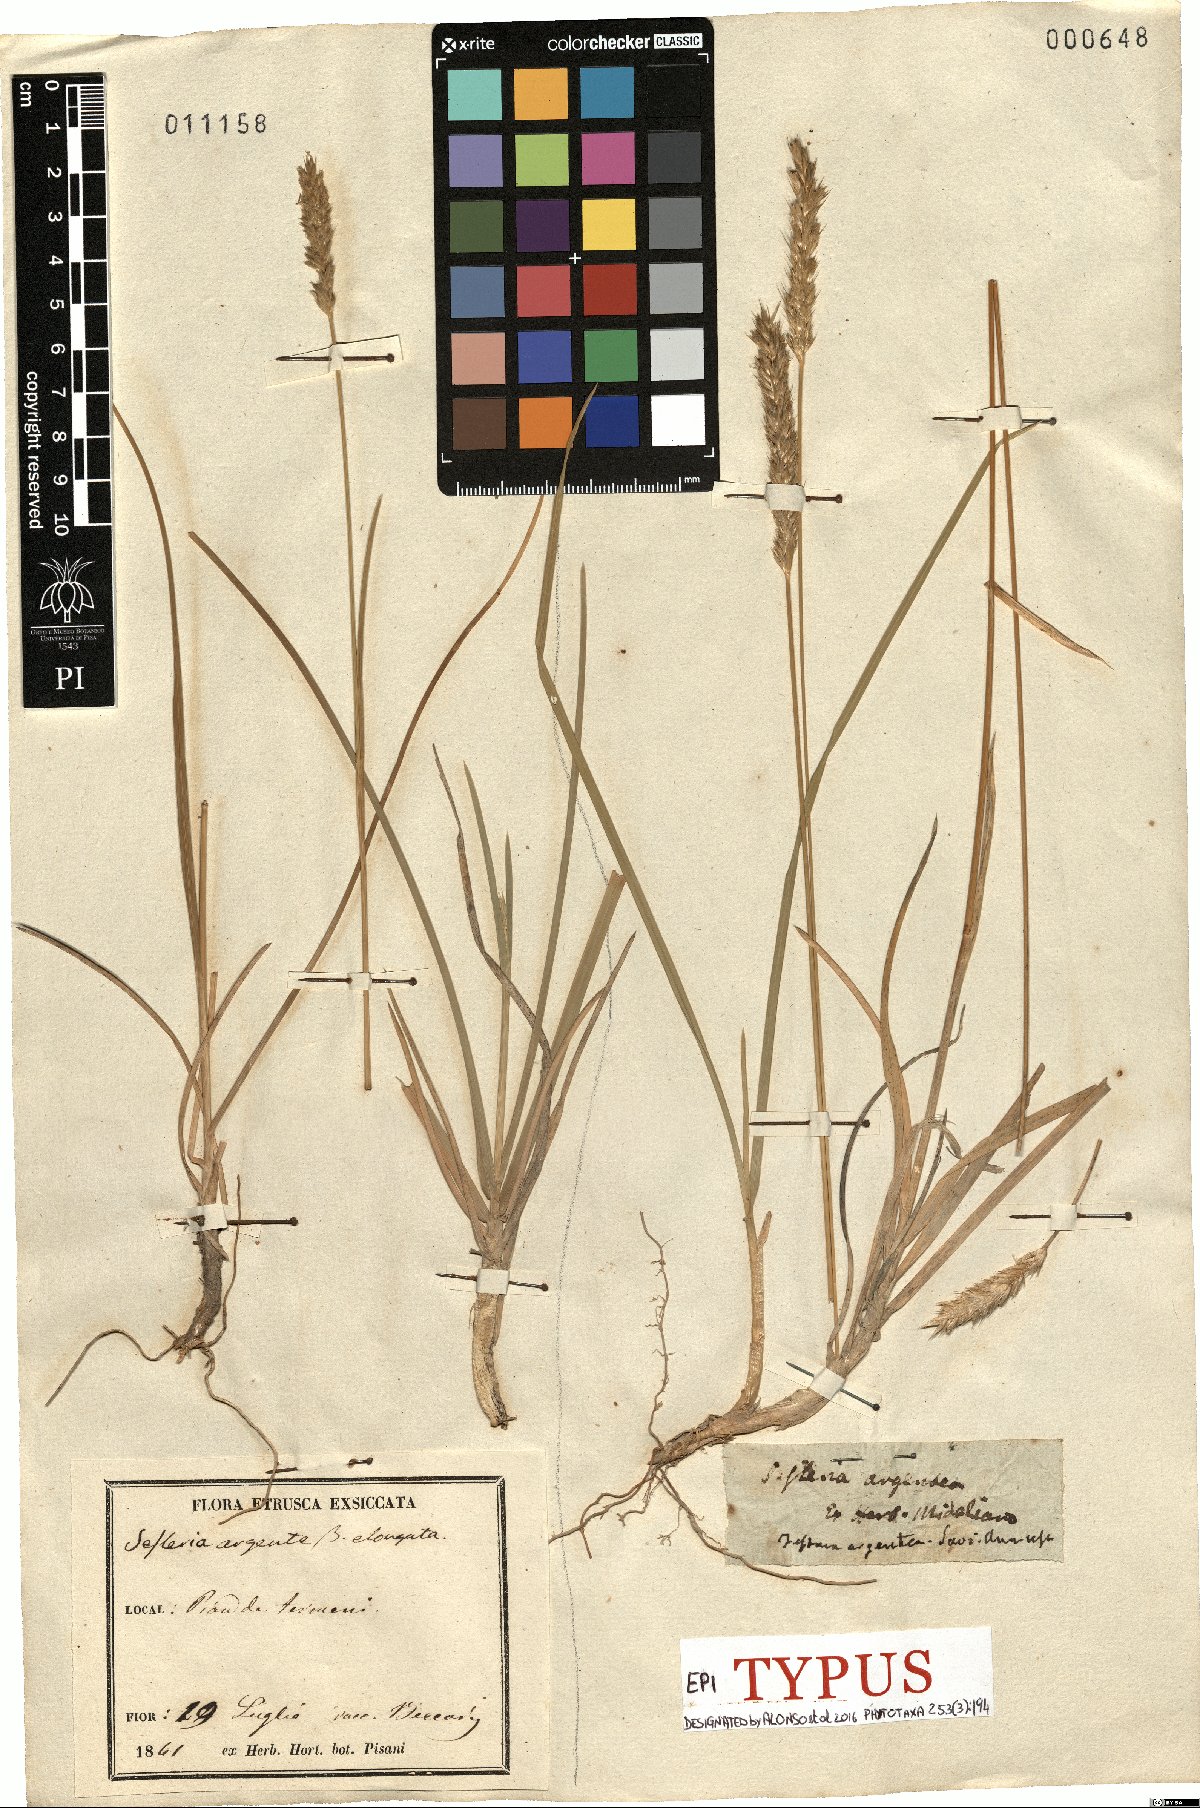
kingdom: Plantae
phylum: Tracheophyta
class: Liliopsida
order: Poales
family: Poaceae
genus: Sesleria
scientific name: Sesleria argentea
